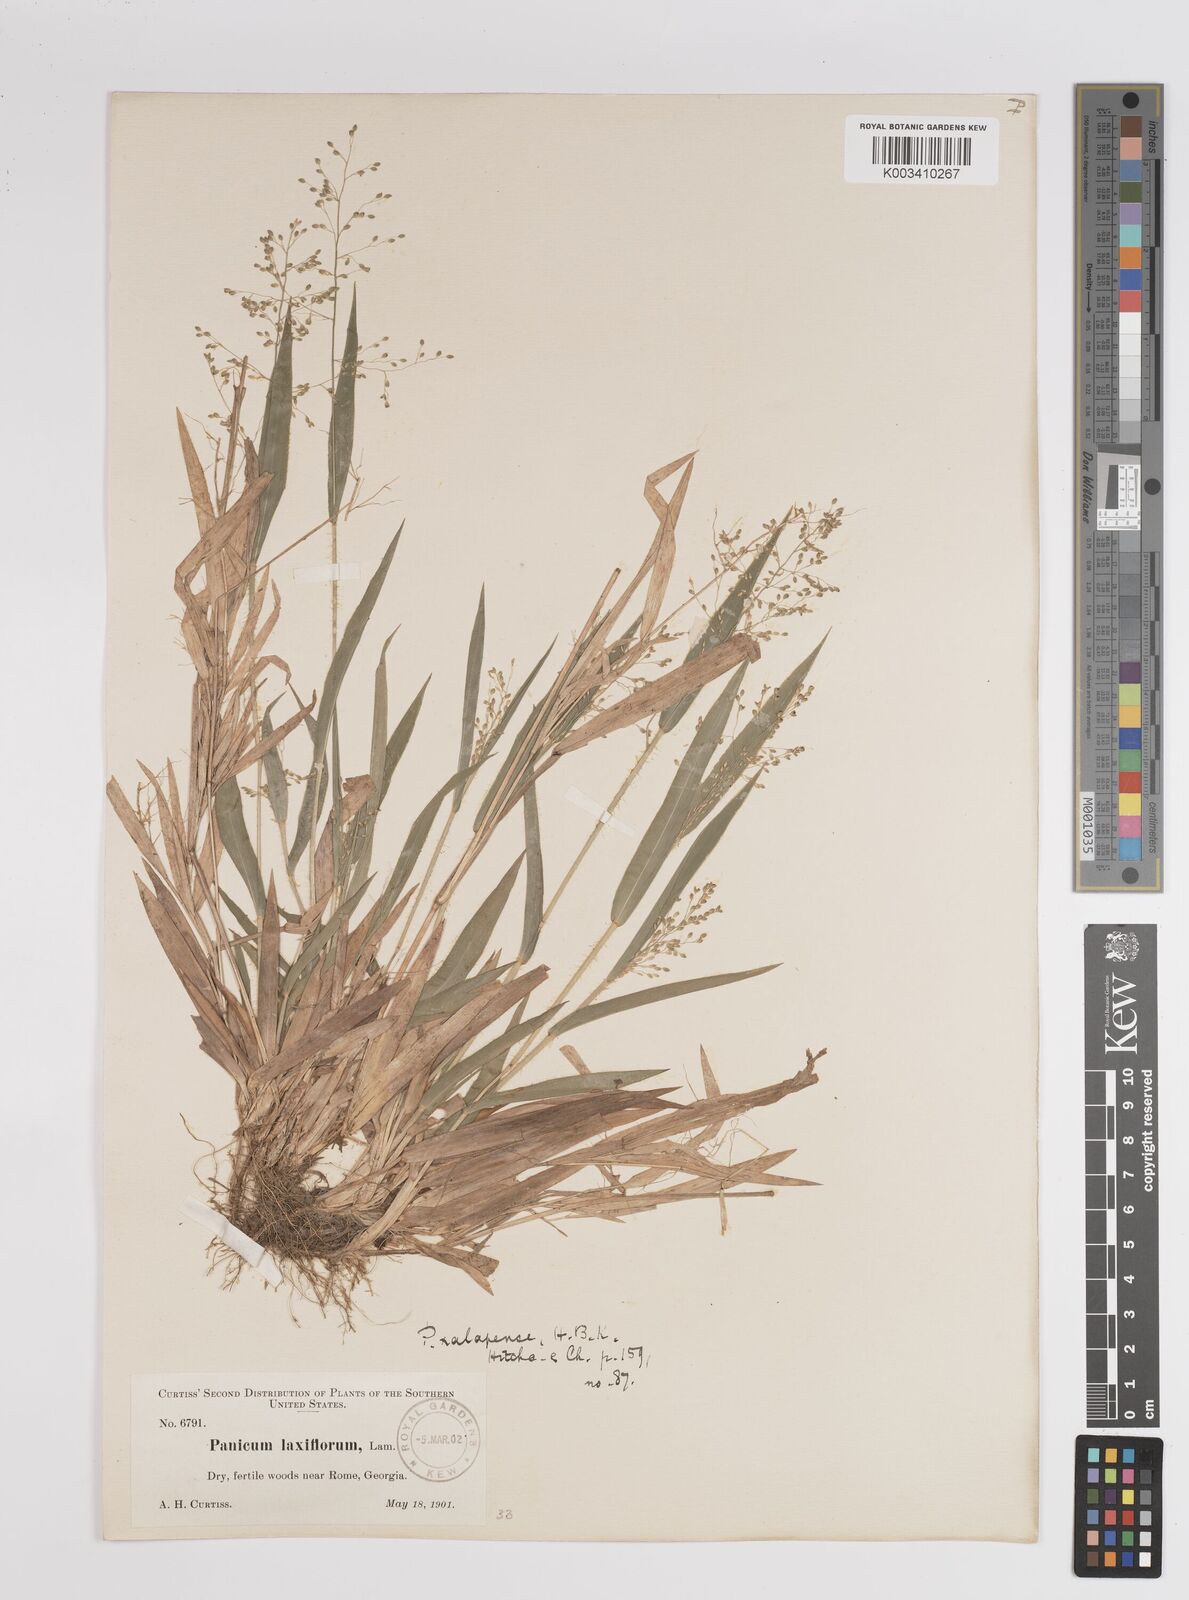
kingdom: Plantae
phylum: Tracheophyta
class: Liliopsida
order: Poales
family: Poaceae
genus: Dichanthelium
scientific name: Dichanthelium laxiflorum
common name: Soft-tuft panic grass
